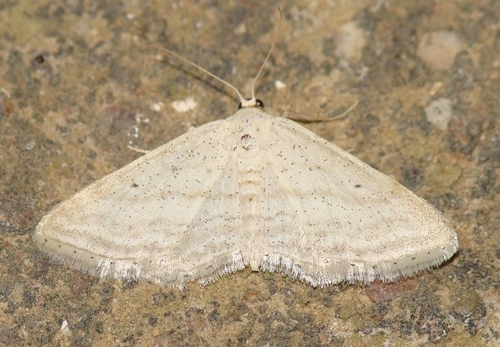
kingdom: Animalia
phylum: Arthropoda
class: Insecta
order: Lepidoptera
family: Geometridae
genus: Idaea
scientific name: Idaea elongaria
